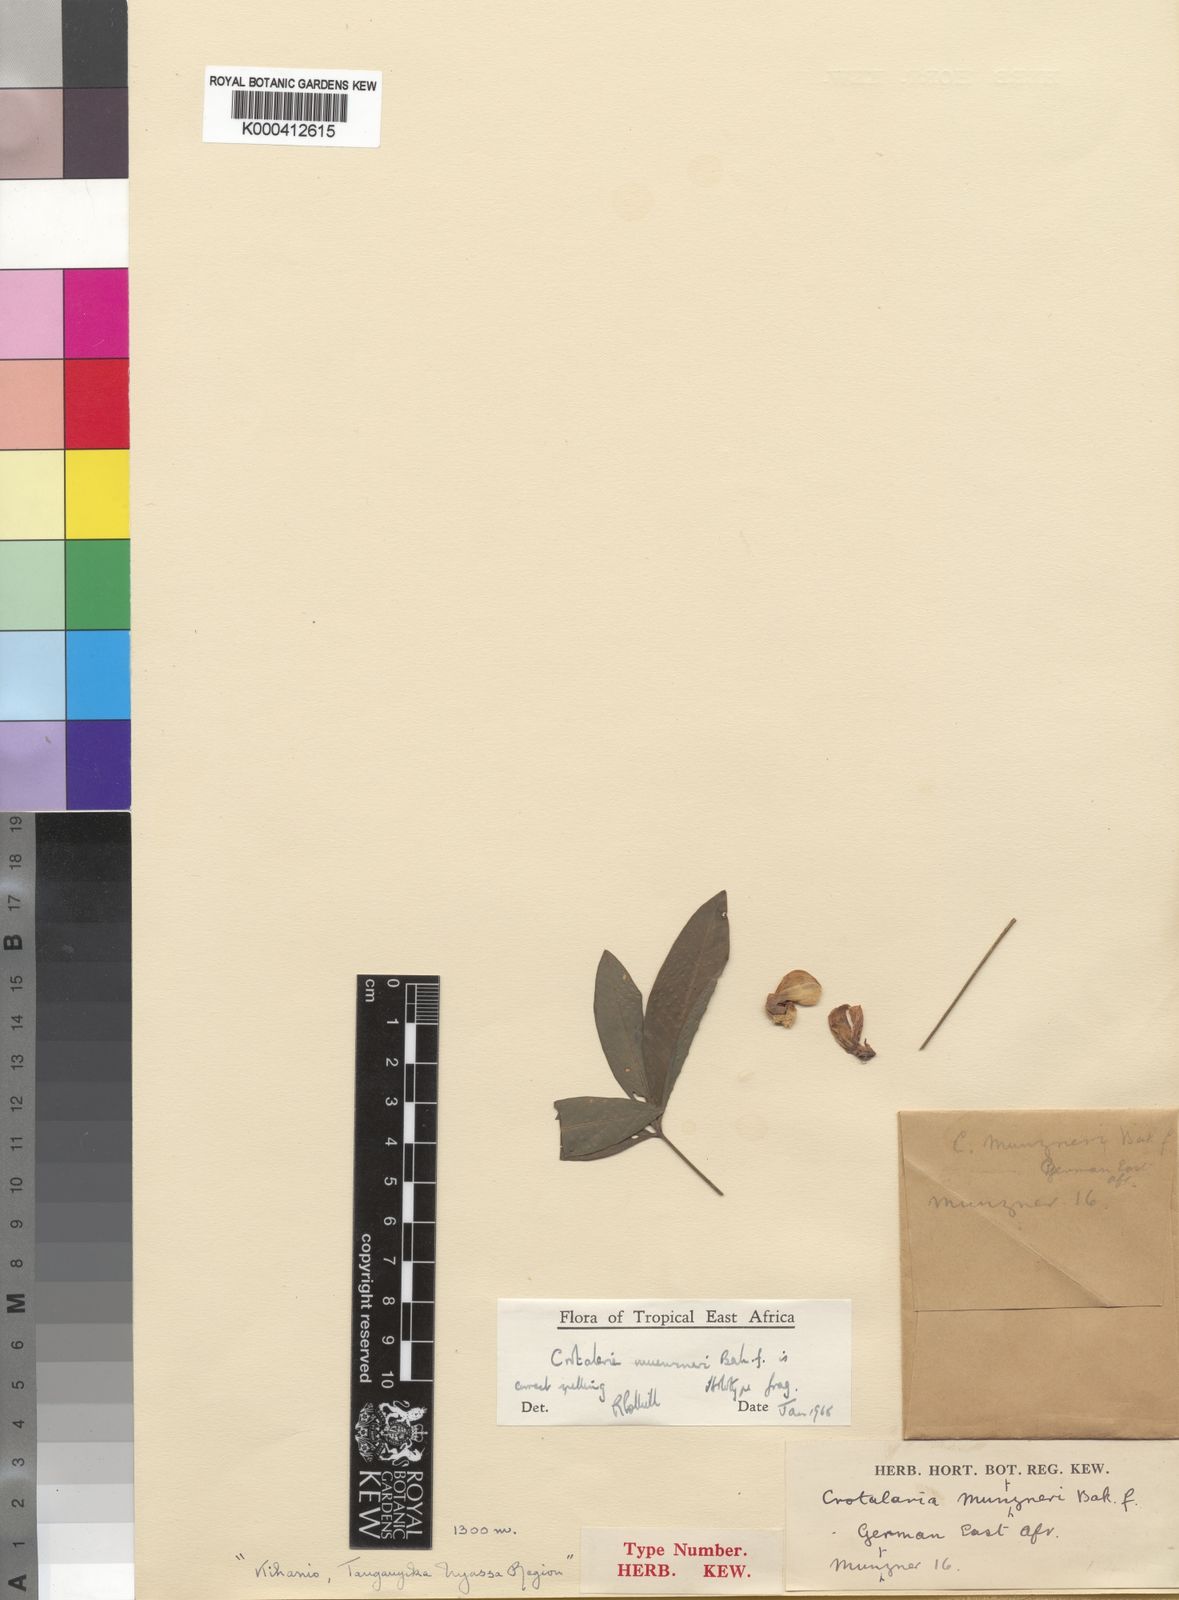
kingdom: Plantae
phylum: Tracheophyta
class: Magnoliopsida
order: Fabales
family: Fabaceae
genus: Crotalaria
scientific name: Crotalaria muenzneri
